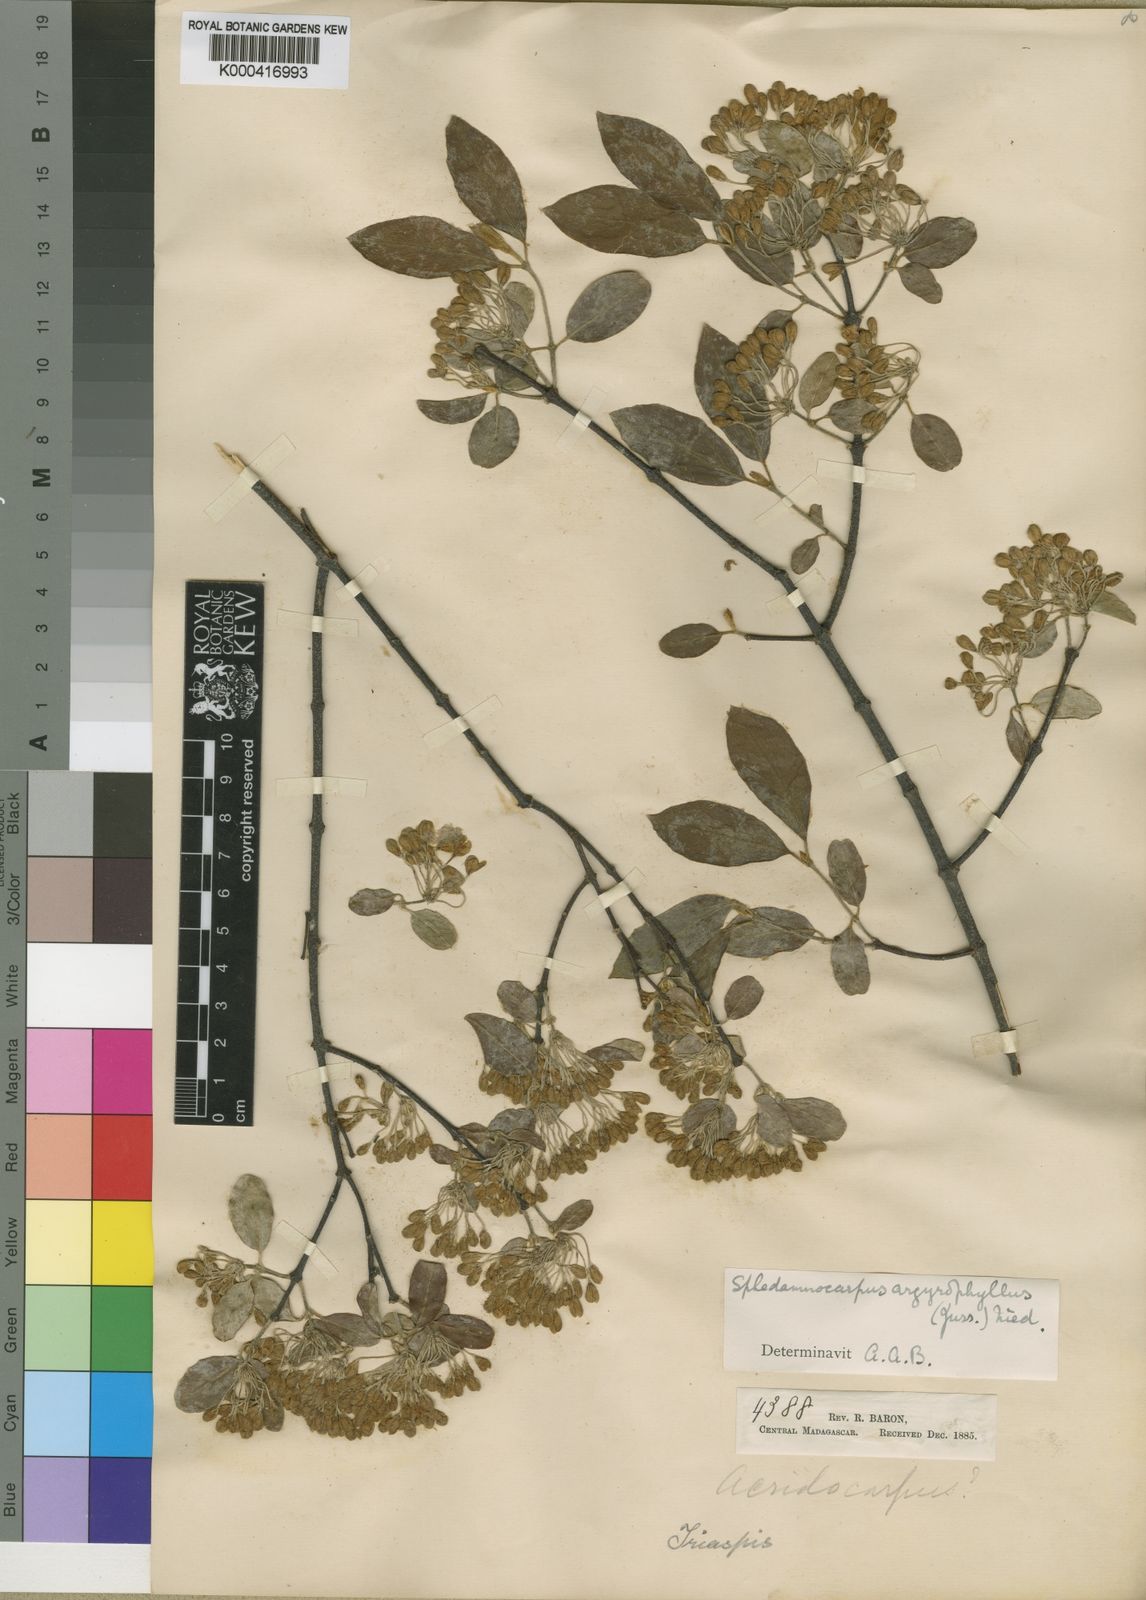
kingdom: Plantae
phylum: Tracheophyta
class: Magnoliopsida
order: Malpighiales
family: Malpighiaceae
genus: Sphedamnocarpus
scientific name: Sphedamnocarpus argyrophyllus
